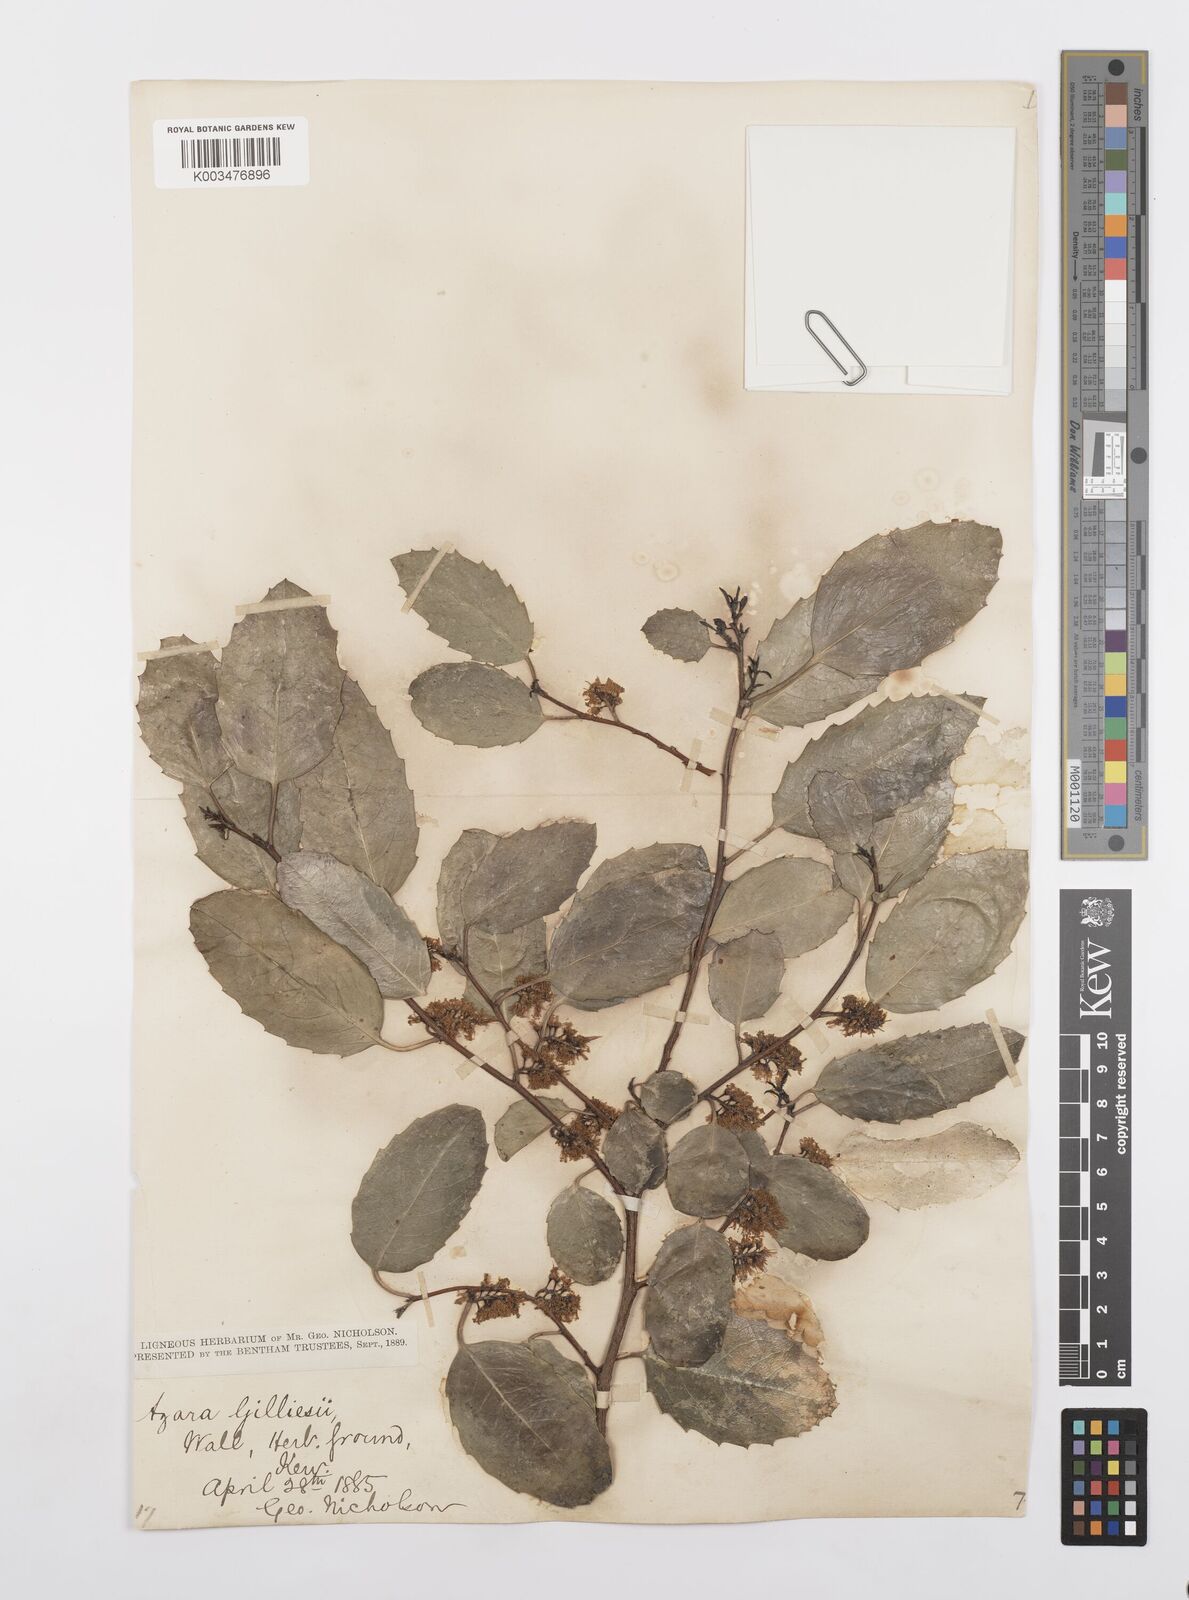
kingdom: Plantae
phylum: Tracheophyta
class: Magnoliopsida
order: Malpighiales
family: Salicaceae
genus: Azara
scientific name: Azara petiolaris
